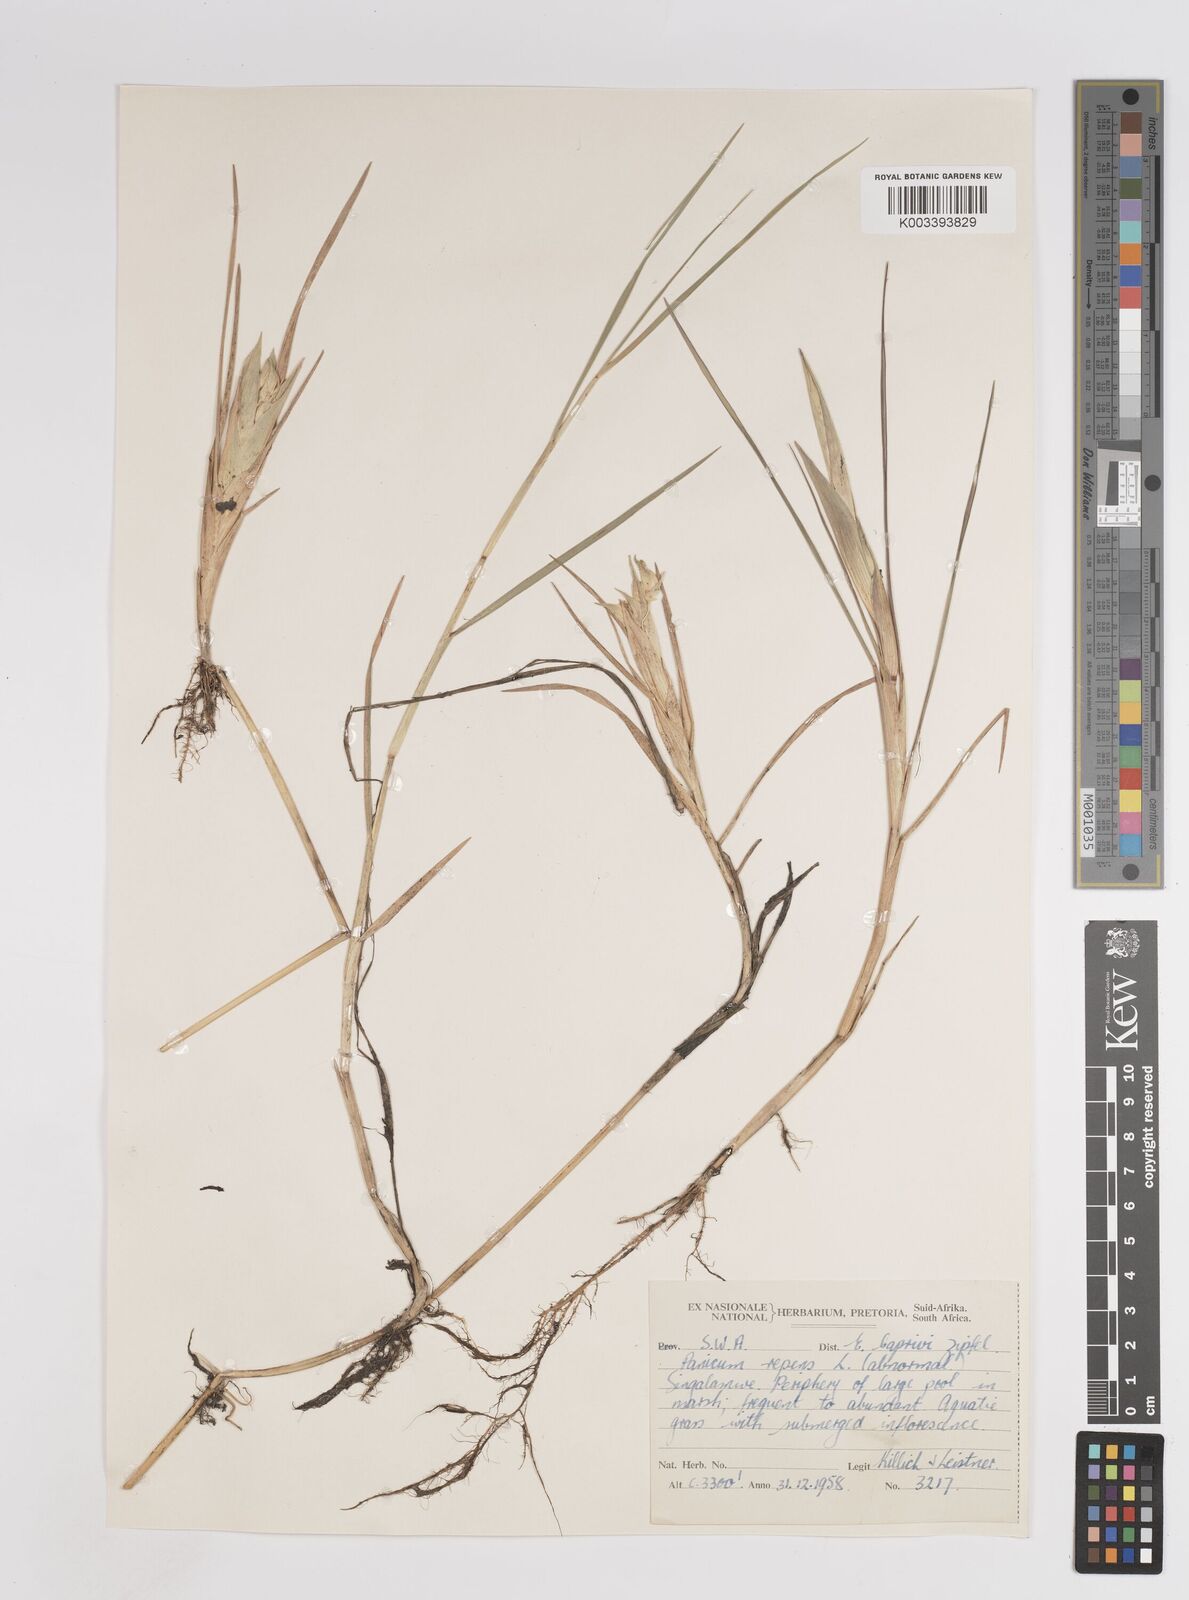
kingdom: Plantae
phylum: Tracheophyta
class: Liliopsida
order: Poales
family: Poaceae
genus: Panicum
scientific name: Panicum repens
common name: Torpedo grass
